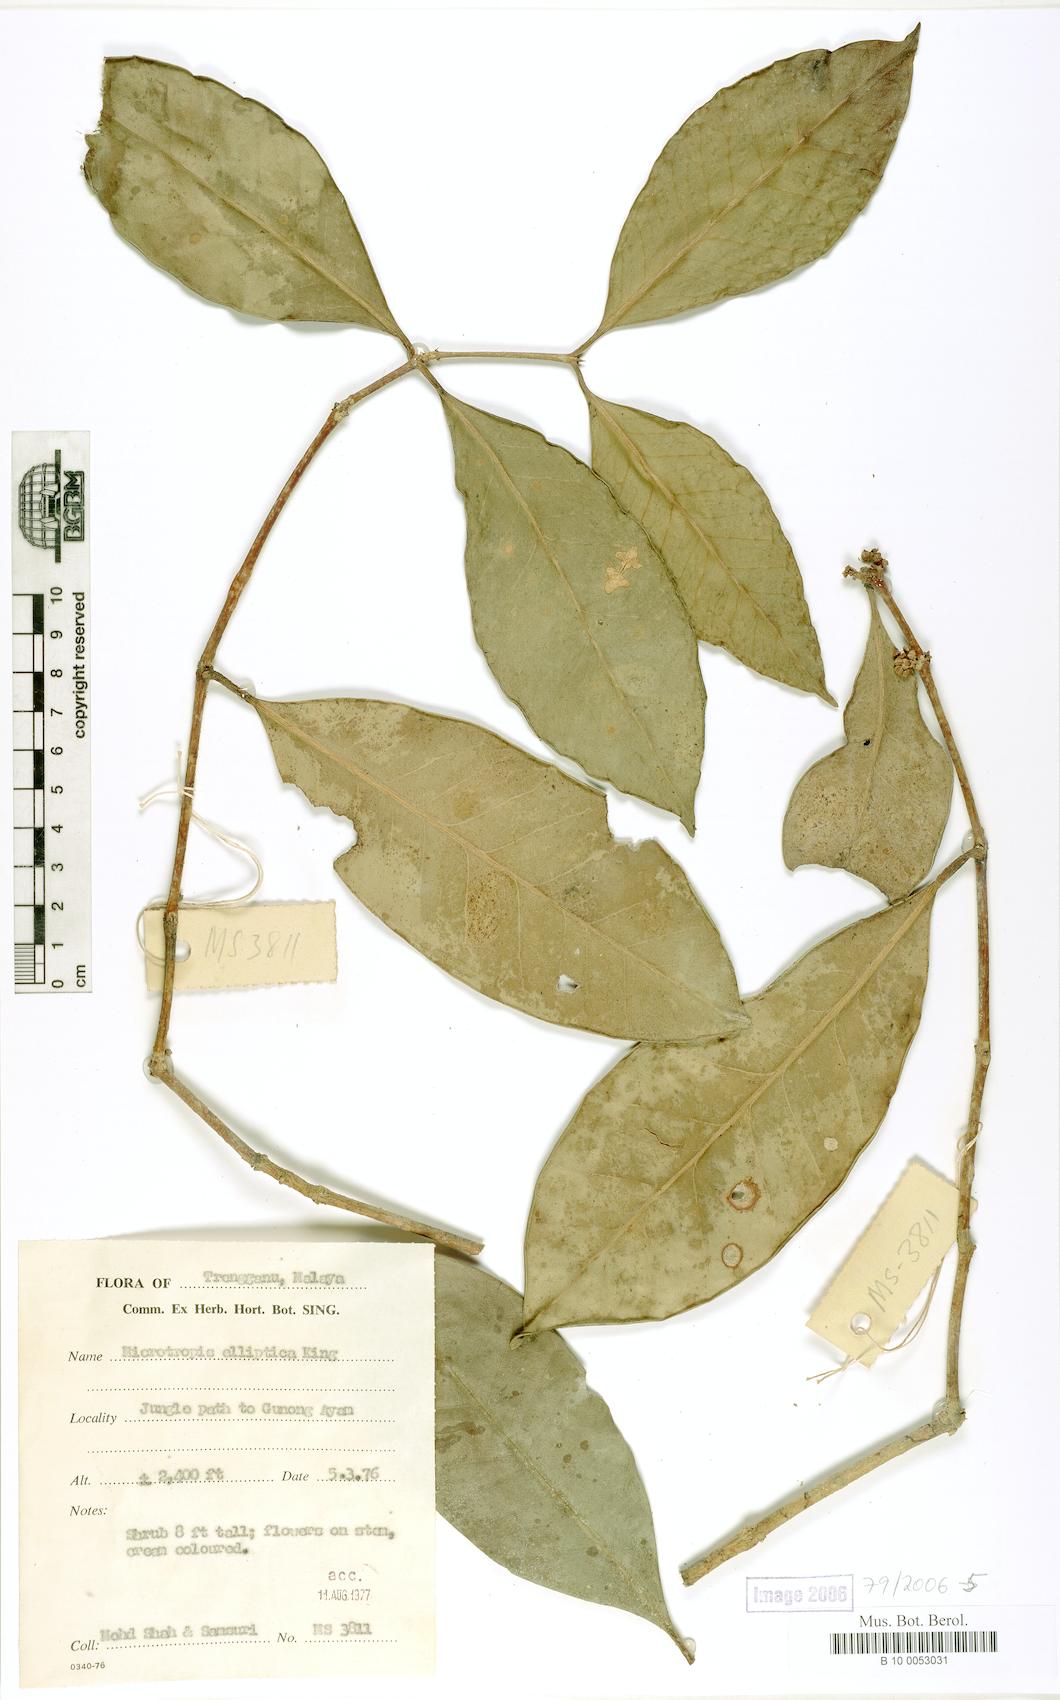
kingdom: Plantae
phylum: Tracheophyta
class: Magnoliopsida
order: Celastrales
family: Celastraceae
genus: Microtropis
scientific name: Microtropis discolor
